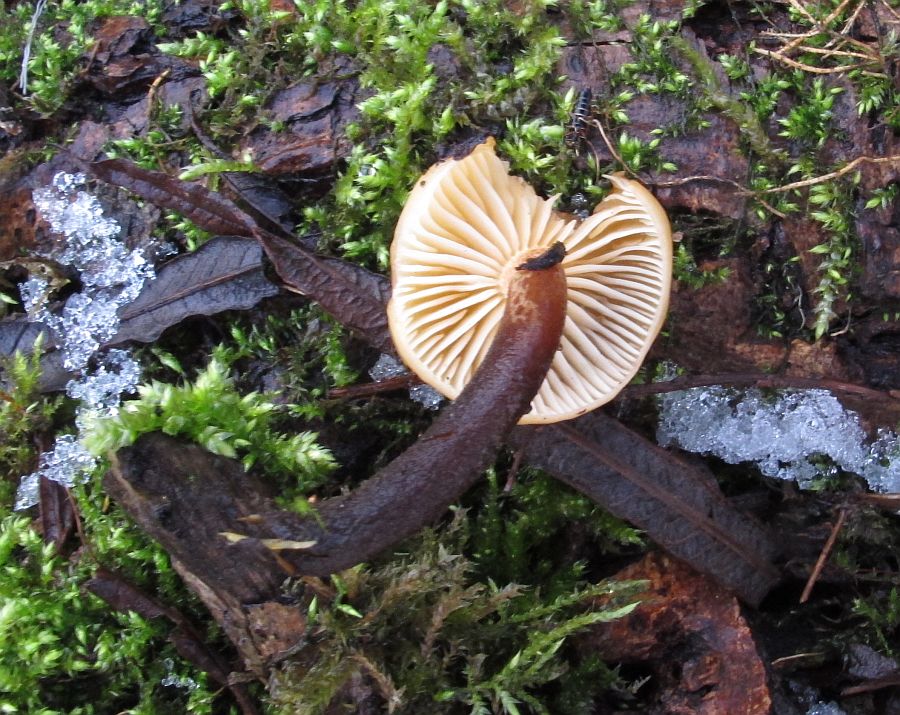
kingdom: Fungi
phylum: Basidiomycota
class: Agaricomycetes
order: Agaricales
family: Physalacriaceae
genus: Flammulina
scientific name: Flammulina elastica
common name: pile-fløjlsfod
